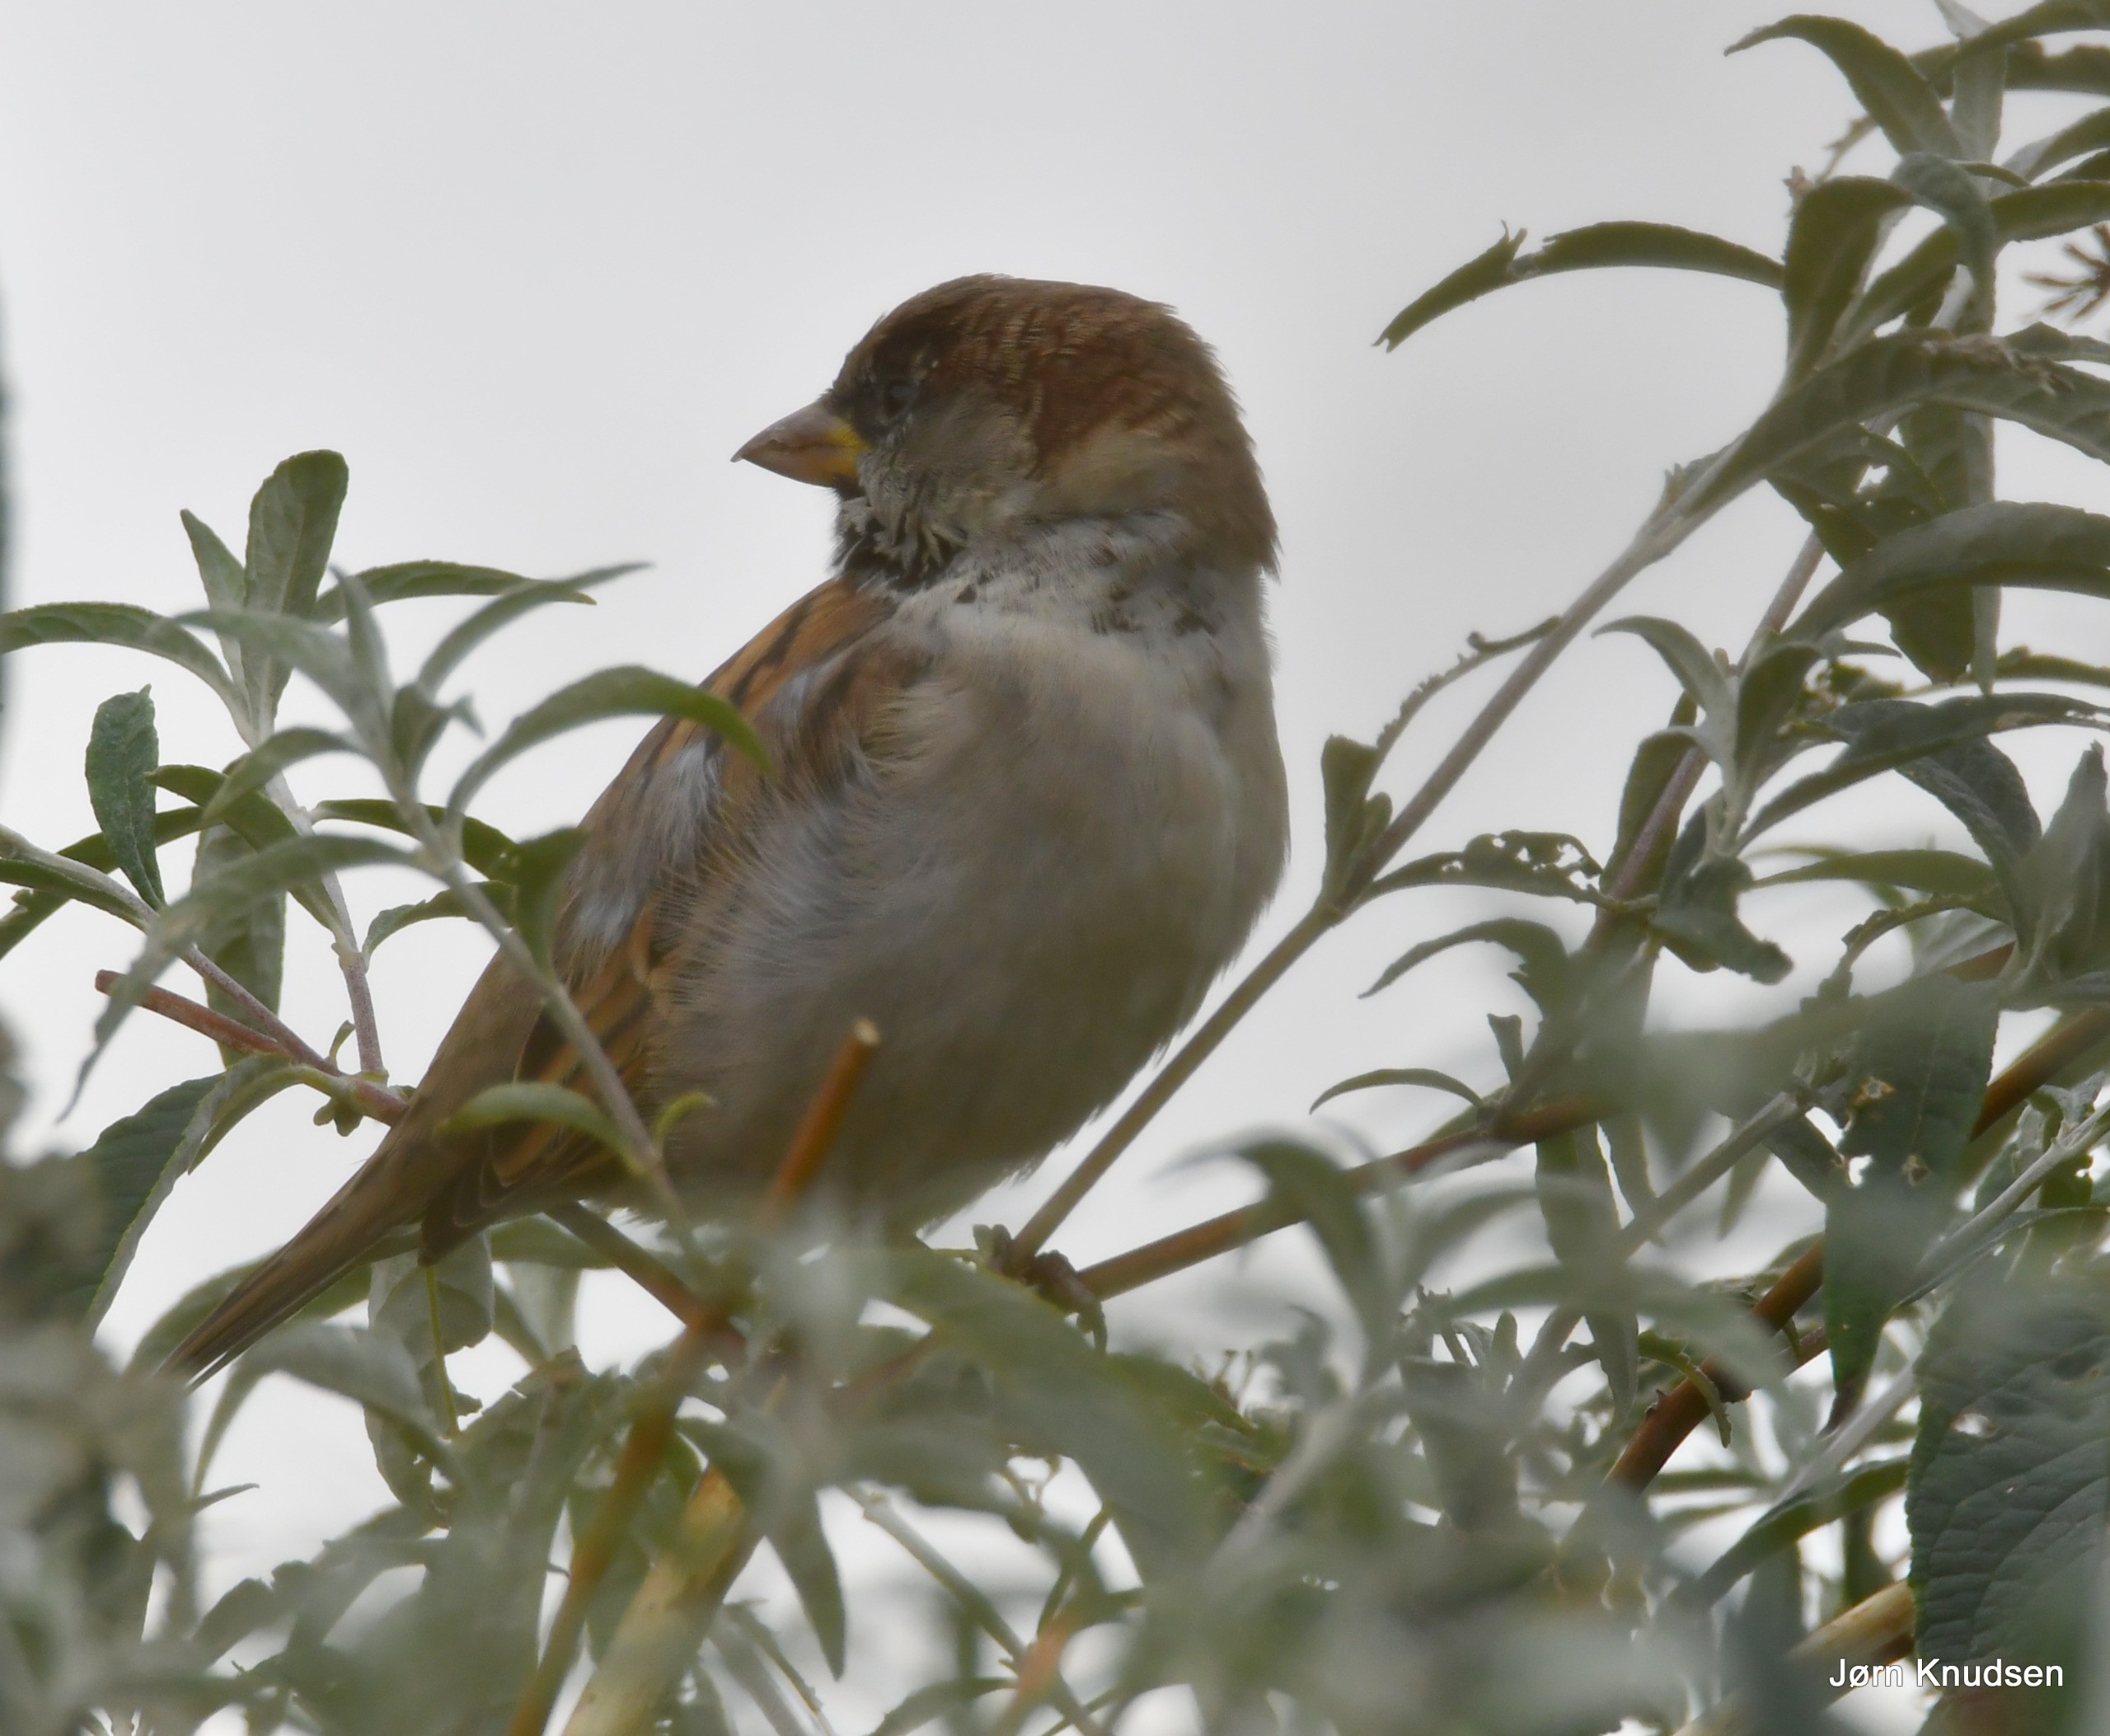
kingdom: Animalia
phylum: Chordata
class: Aves
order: Passeriformes
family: Passeridae
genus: Passer
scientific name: Passer domesticus
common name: Gråspurv
